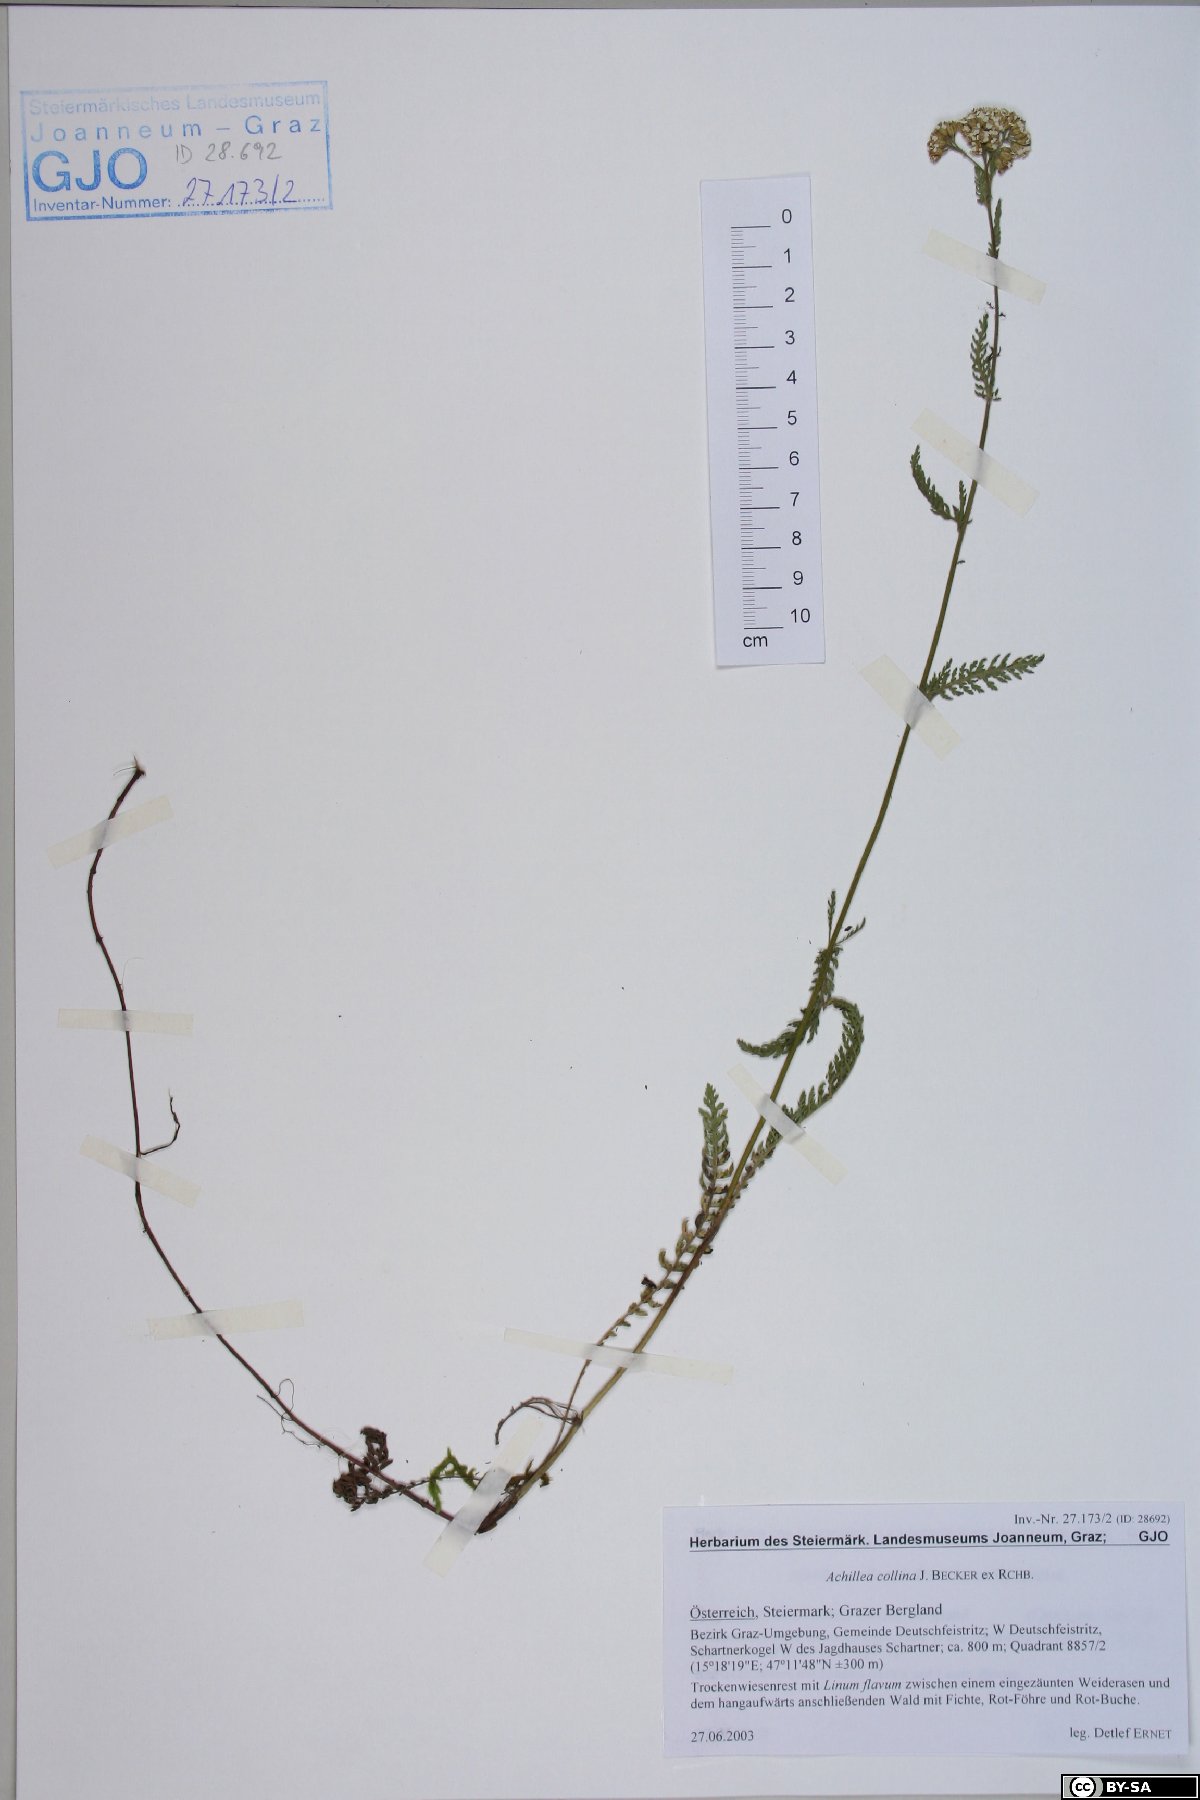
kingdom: Plantae
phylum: Tracheophyta
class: Magnoliopsida
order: Asterales
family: Asteraceae
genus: Achillea
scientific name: Achillea collina
